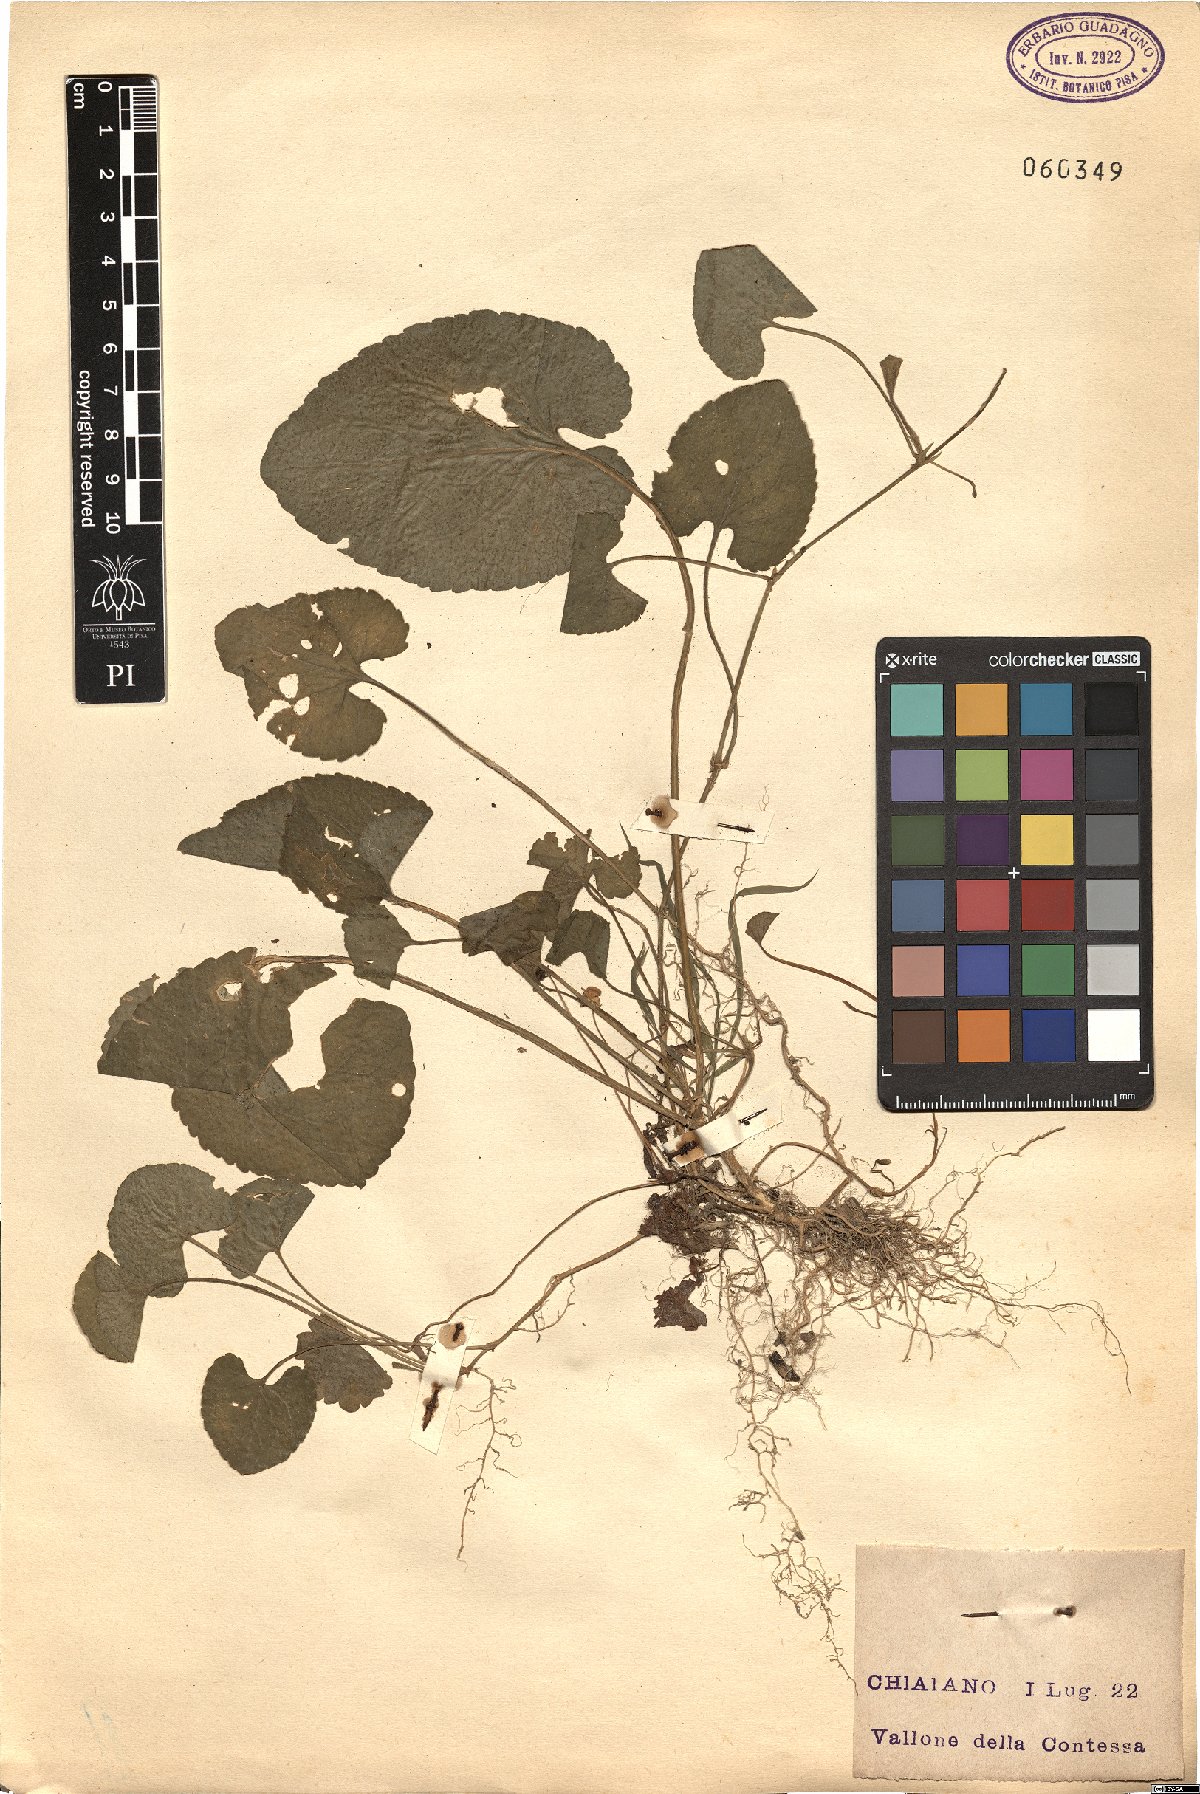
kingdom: Plantae
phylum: Tracheophyta
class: Magnoliopsida
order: Malpighiales
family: Violaceae
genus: Viola
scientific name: Viola
